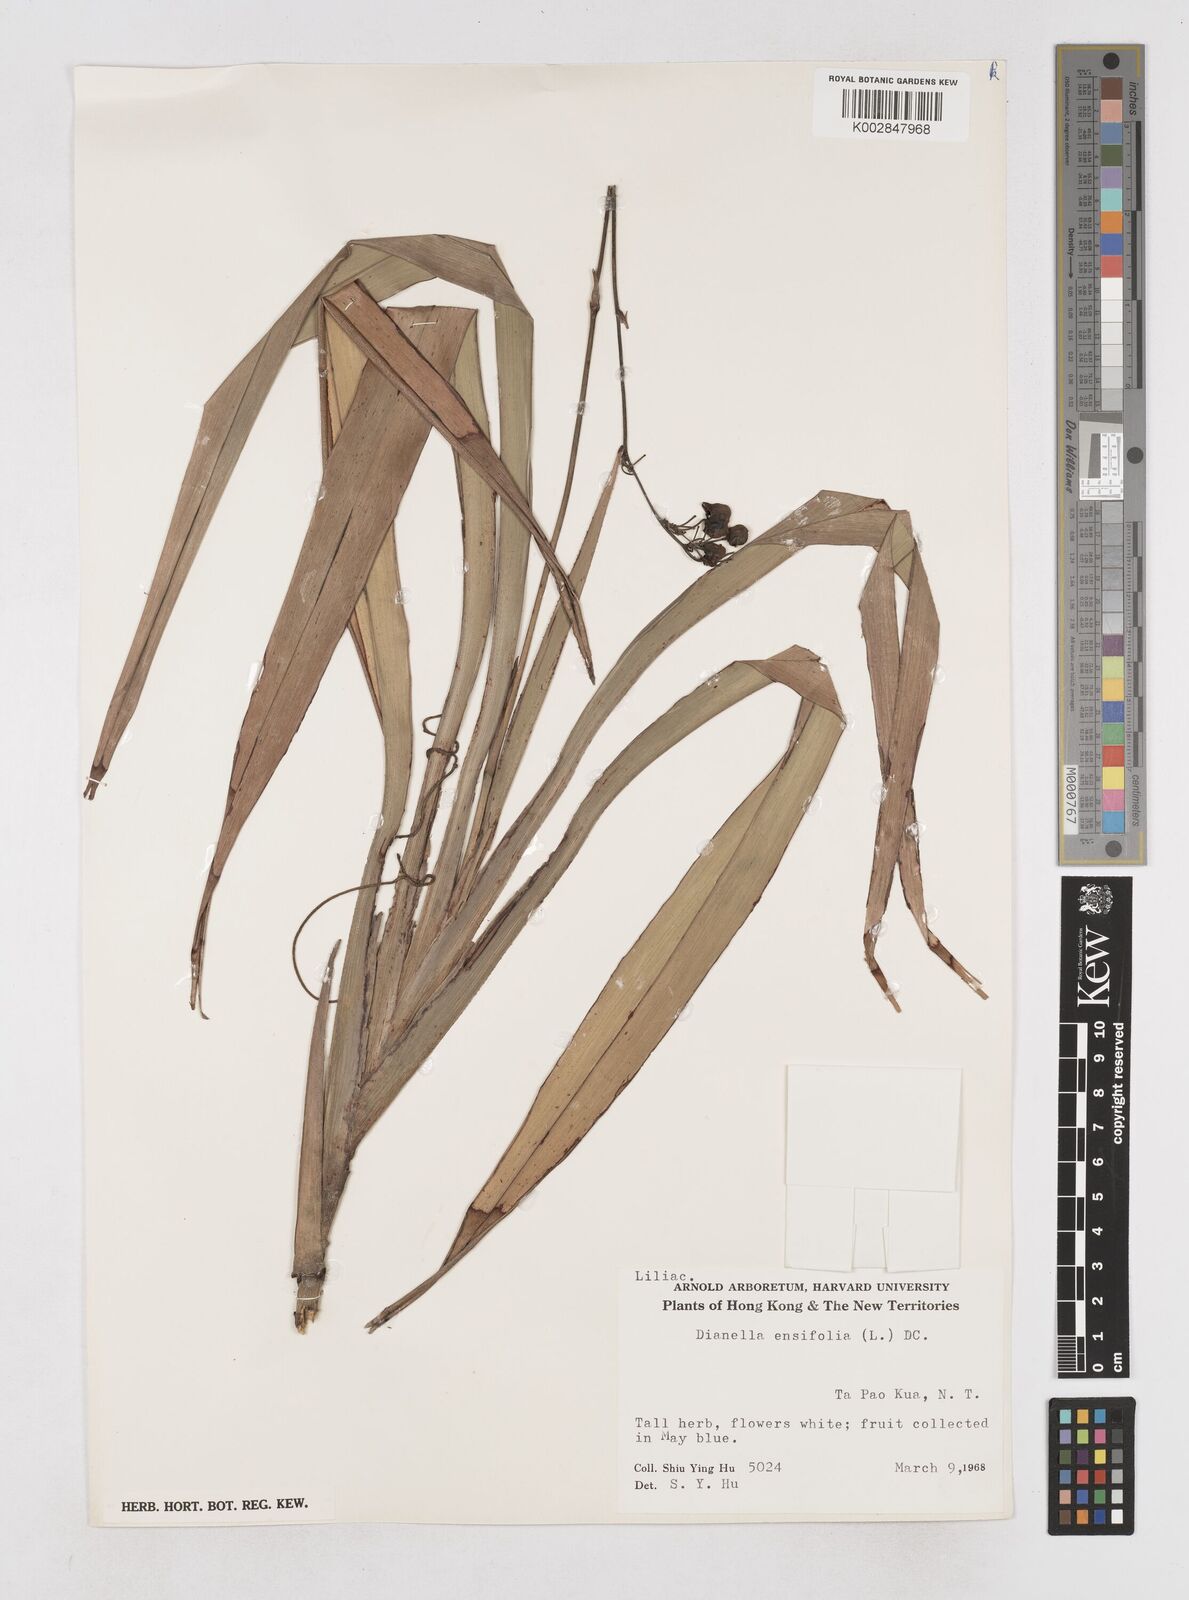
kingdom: Plantae
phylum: Tracheophyta
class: Liliopsida
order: Asparagales
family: Asphodelaceae
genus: Dianella
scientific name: Dianella ensifolia
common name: New zealand lilyplant
